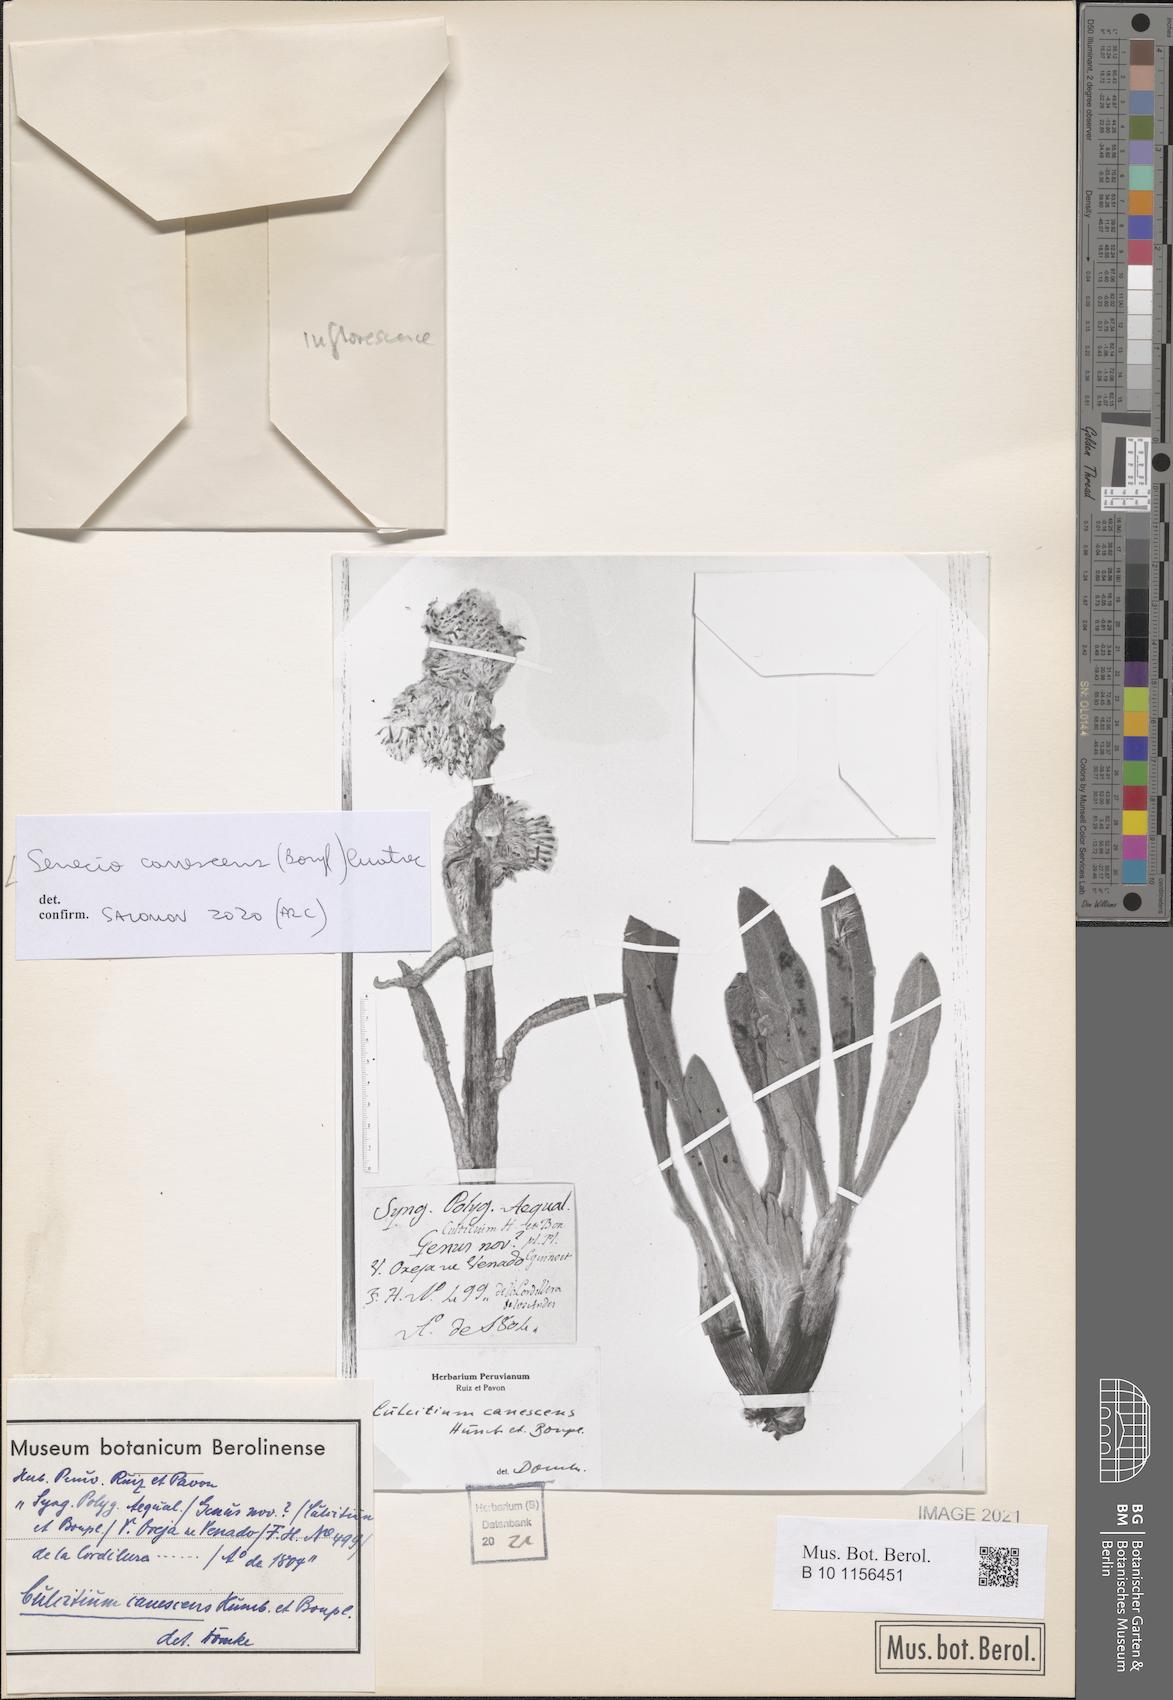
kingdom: Plantae
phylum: Tracheophyta
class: Magnoliopsida
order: Asterales
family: Asteraceae
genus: Culcitium
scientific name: Culcitium canescens
